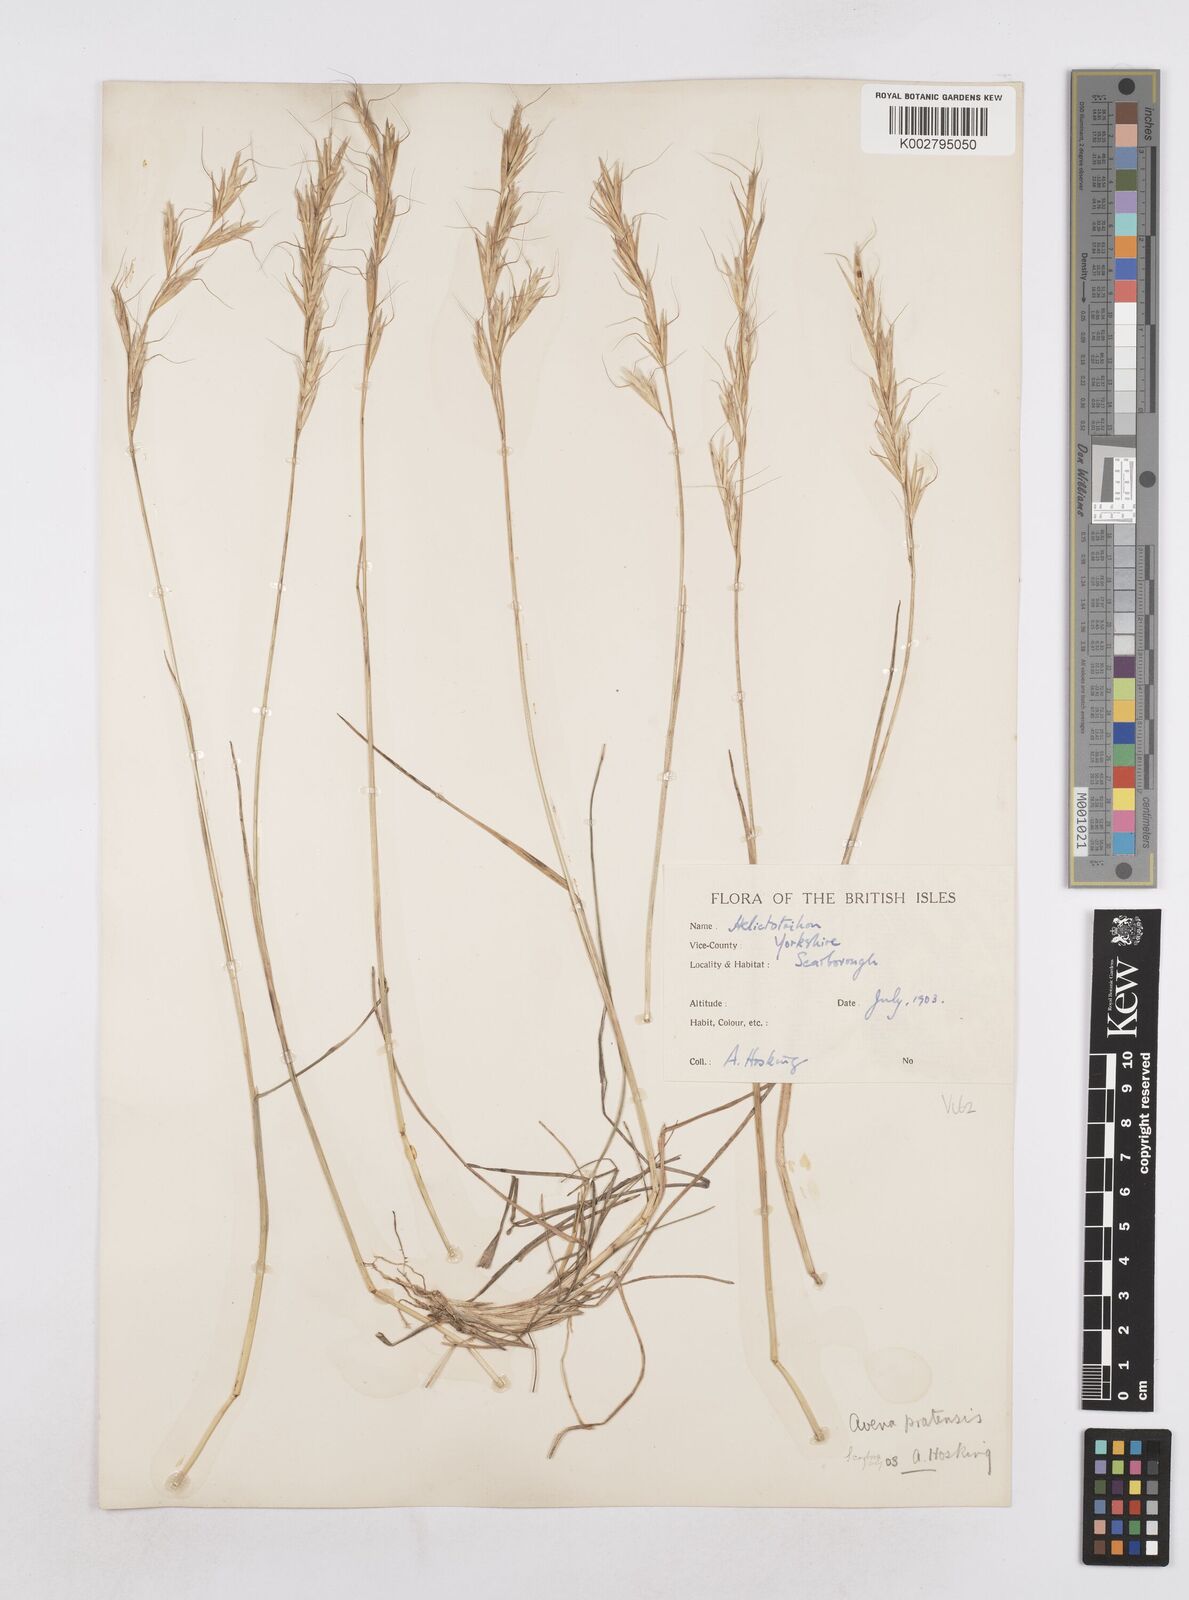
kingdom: Plantae
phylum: Tracheophyta
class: Liliopsida
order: Poales
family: Poaceae
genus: Helictochloa
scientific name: Helictochloa pratensis
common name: Meadow oat grass
